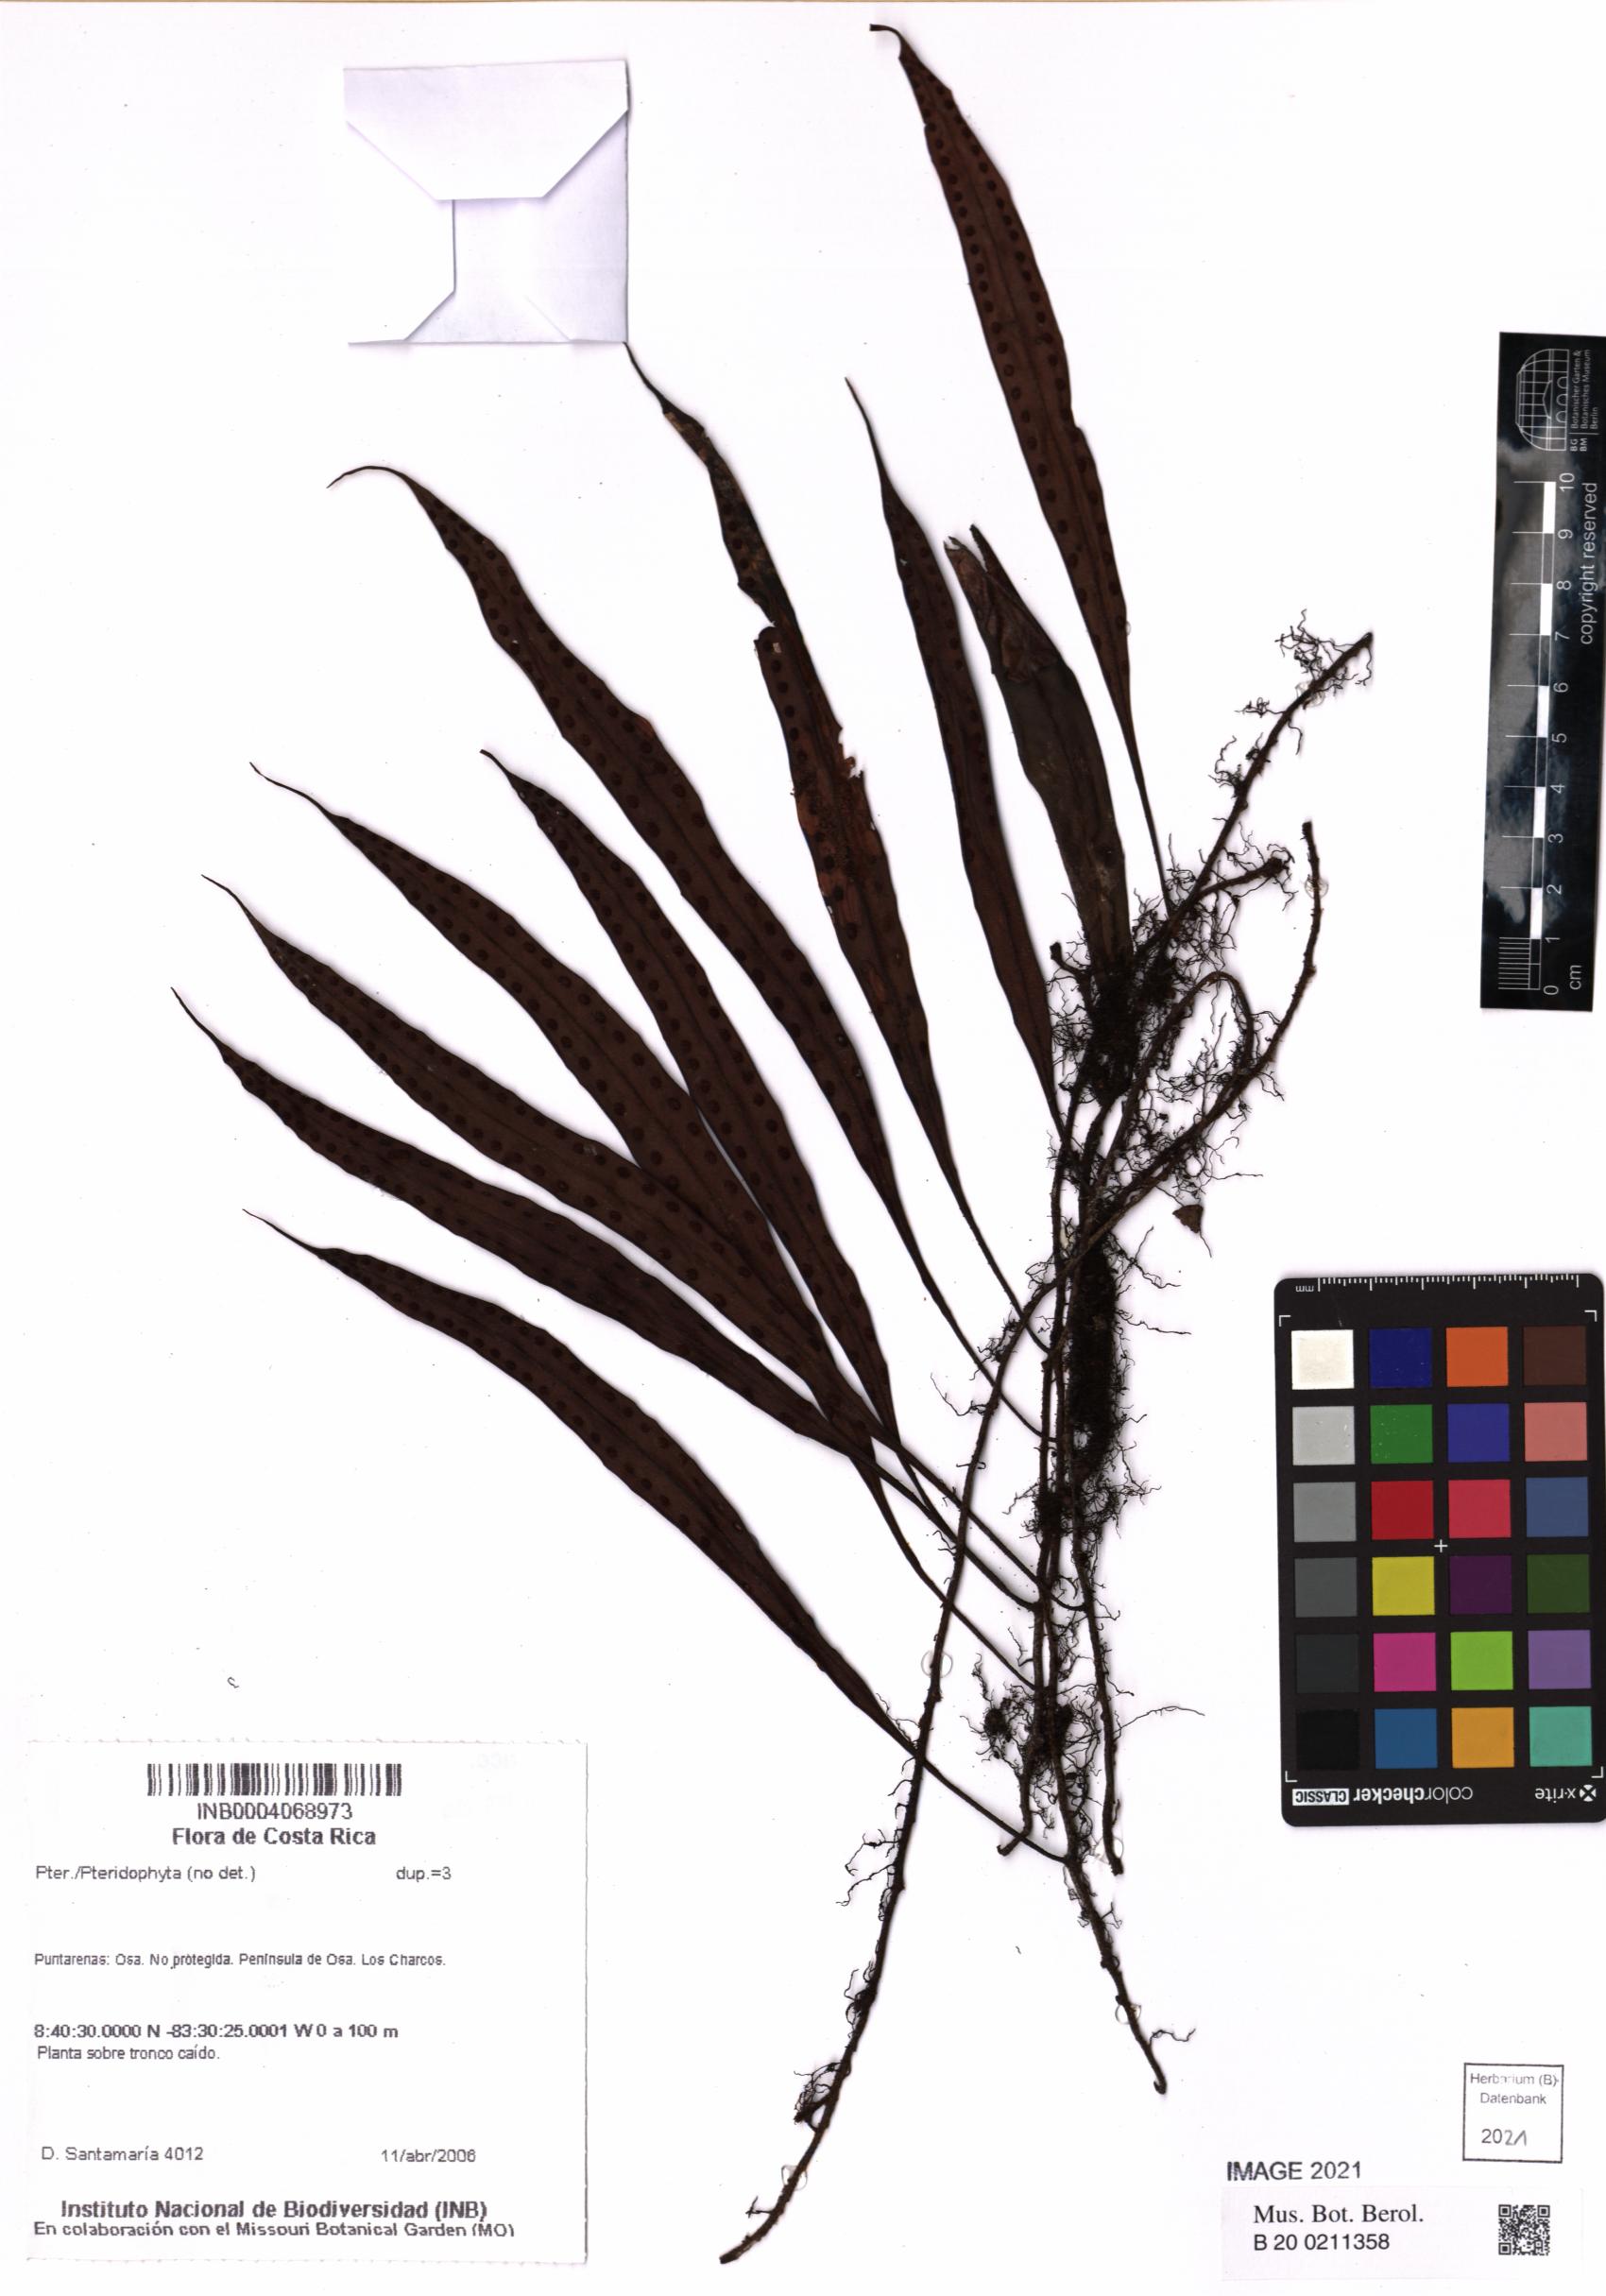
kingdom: Plantae
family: Pteridophyta
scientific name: Pteridophyta
